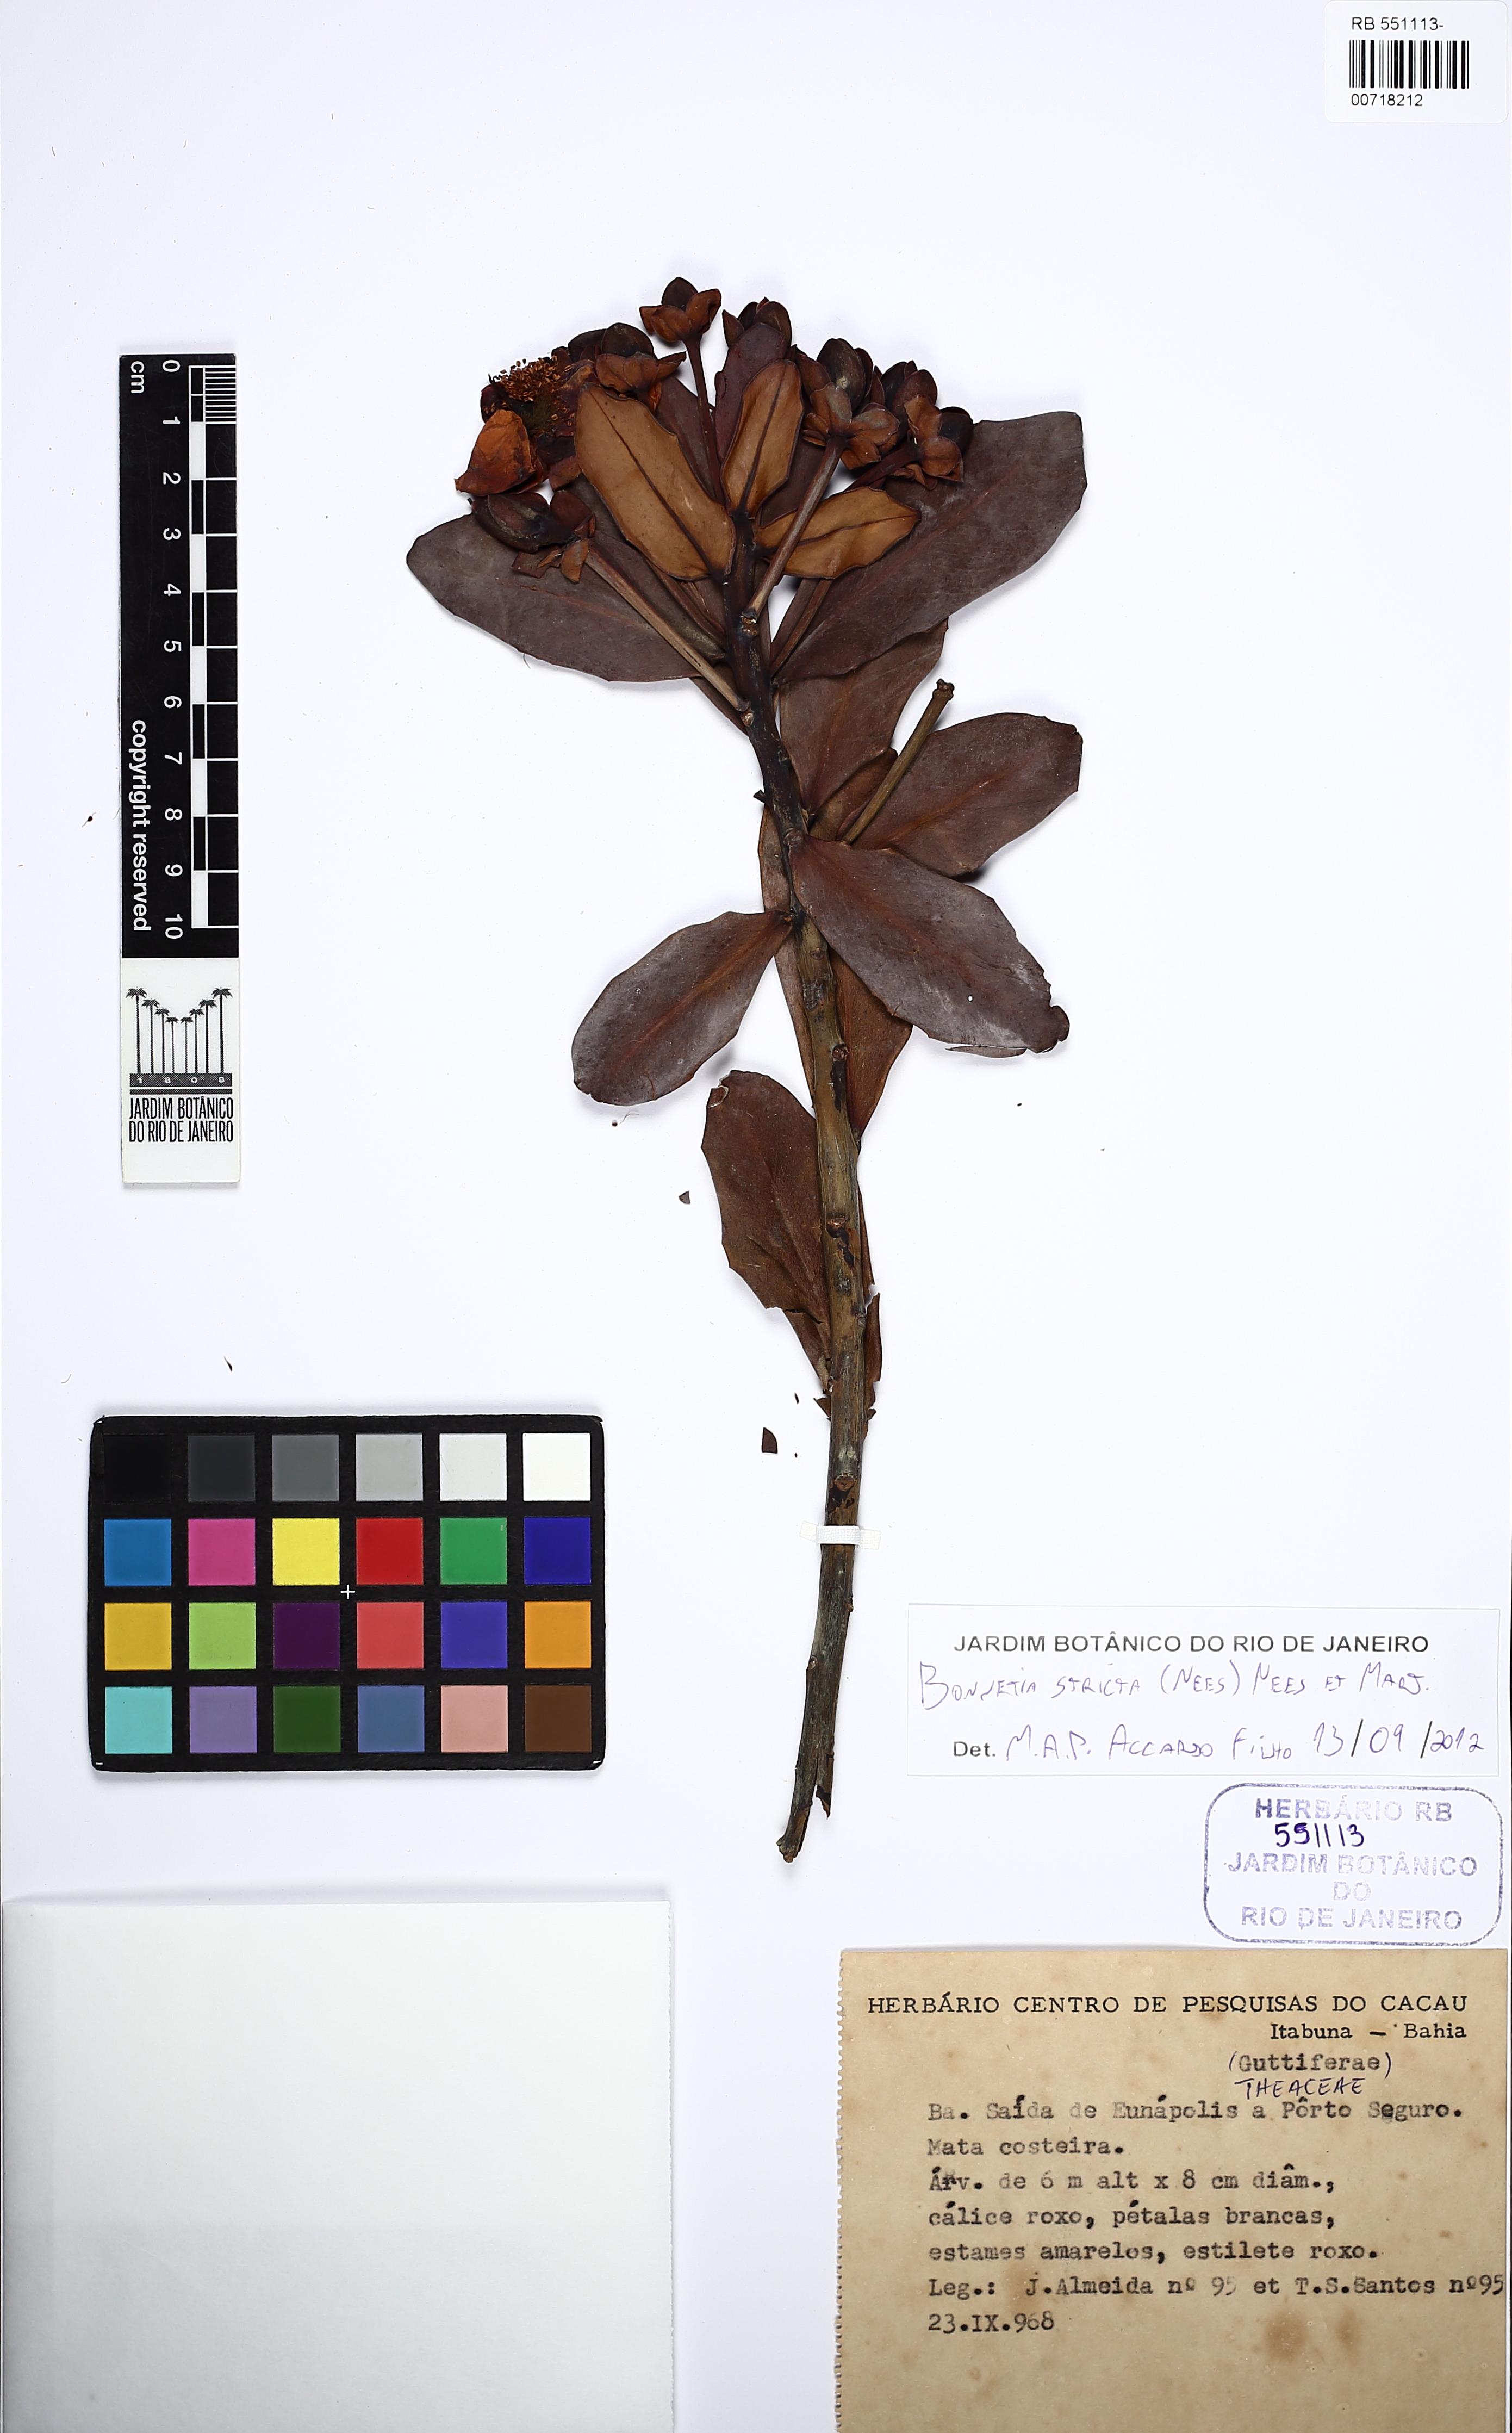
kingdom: Plantae
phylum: Tracheophyta
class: Magnoliopsida
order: Malpighiales
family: Bonnetiaceae
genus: Bonnetia
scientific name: Bonnetia stricta
